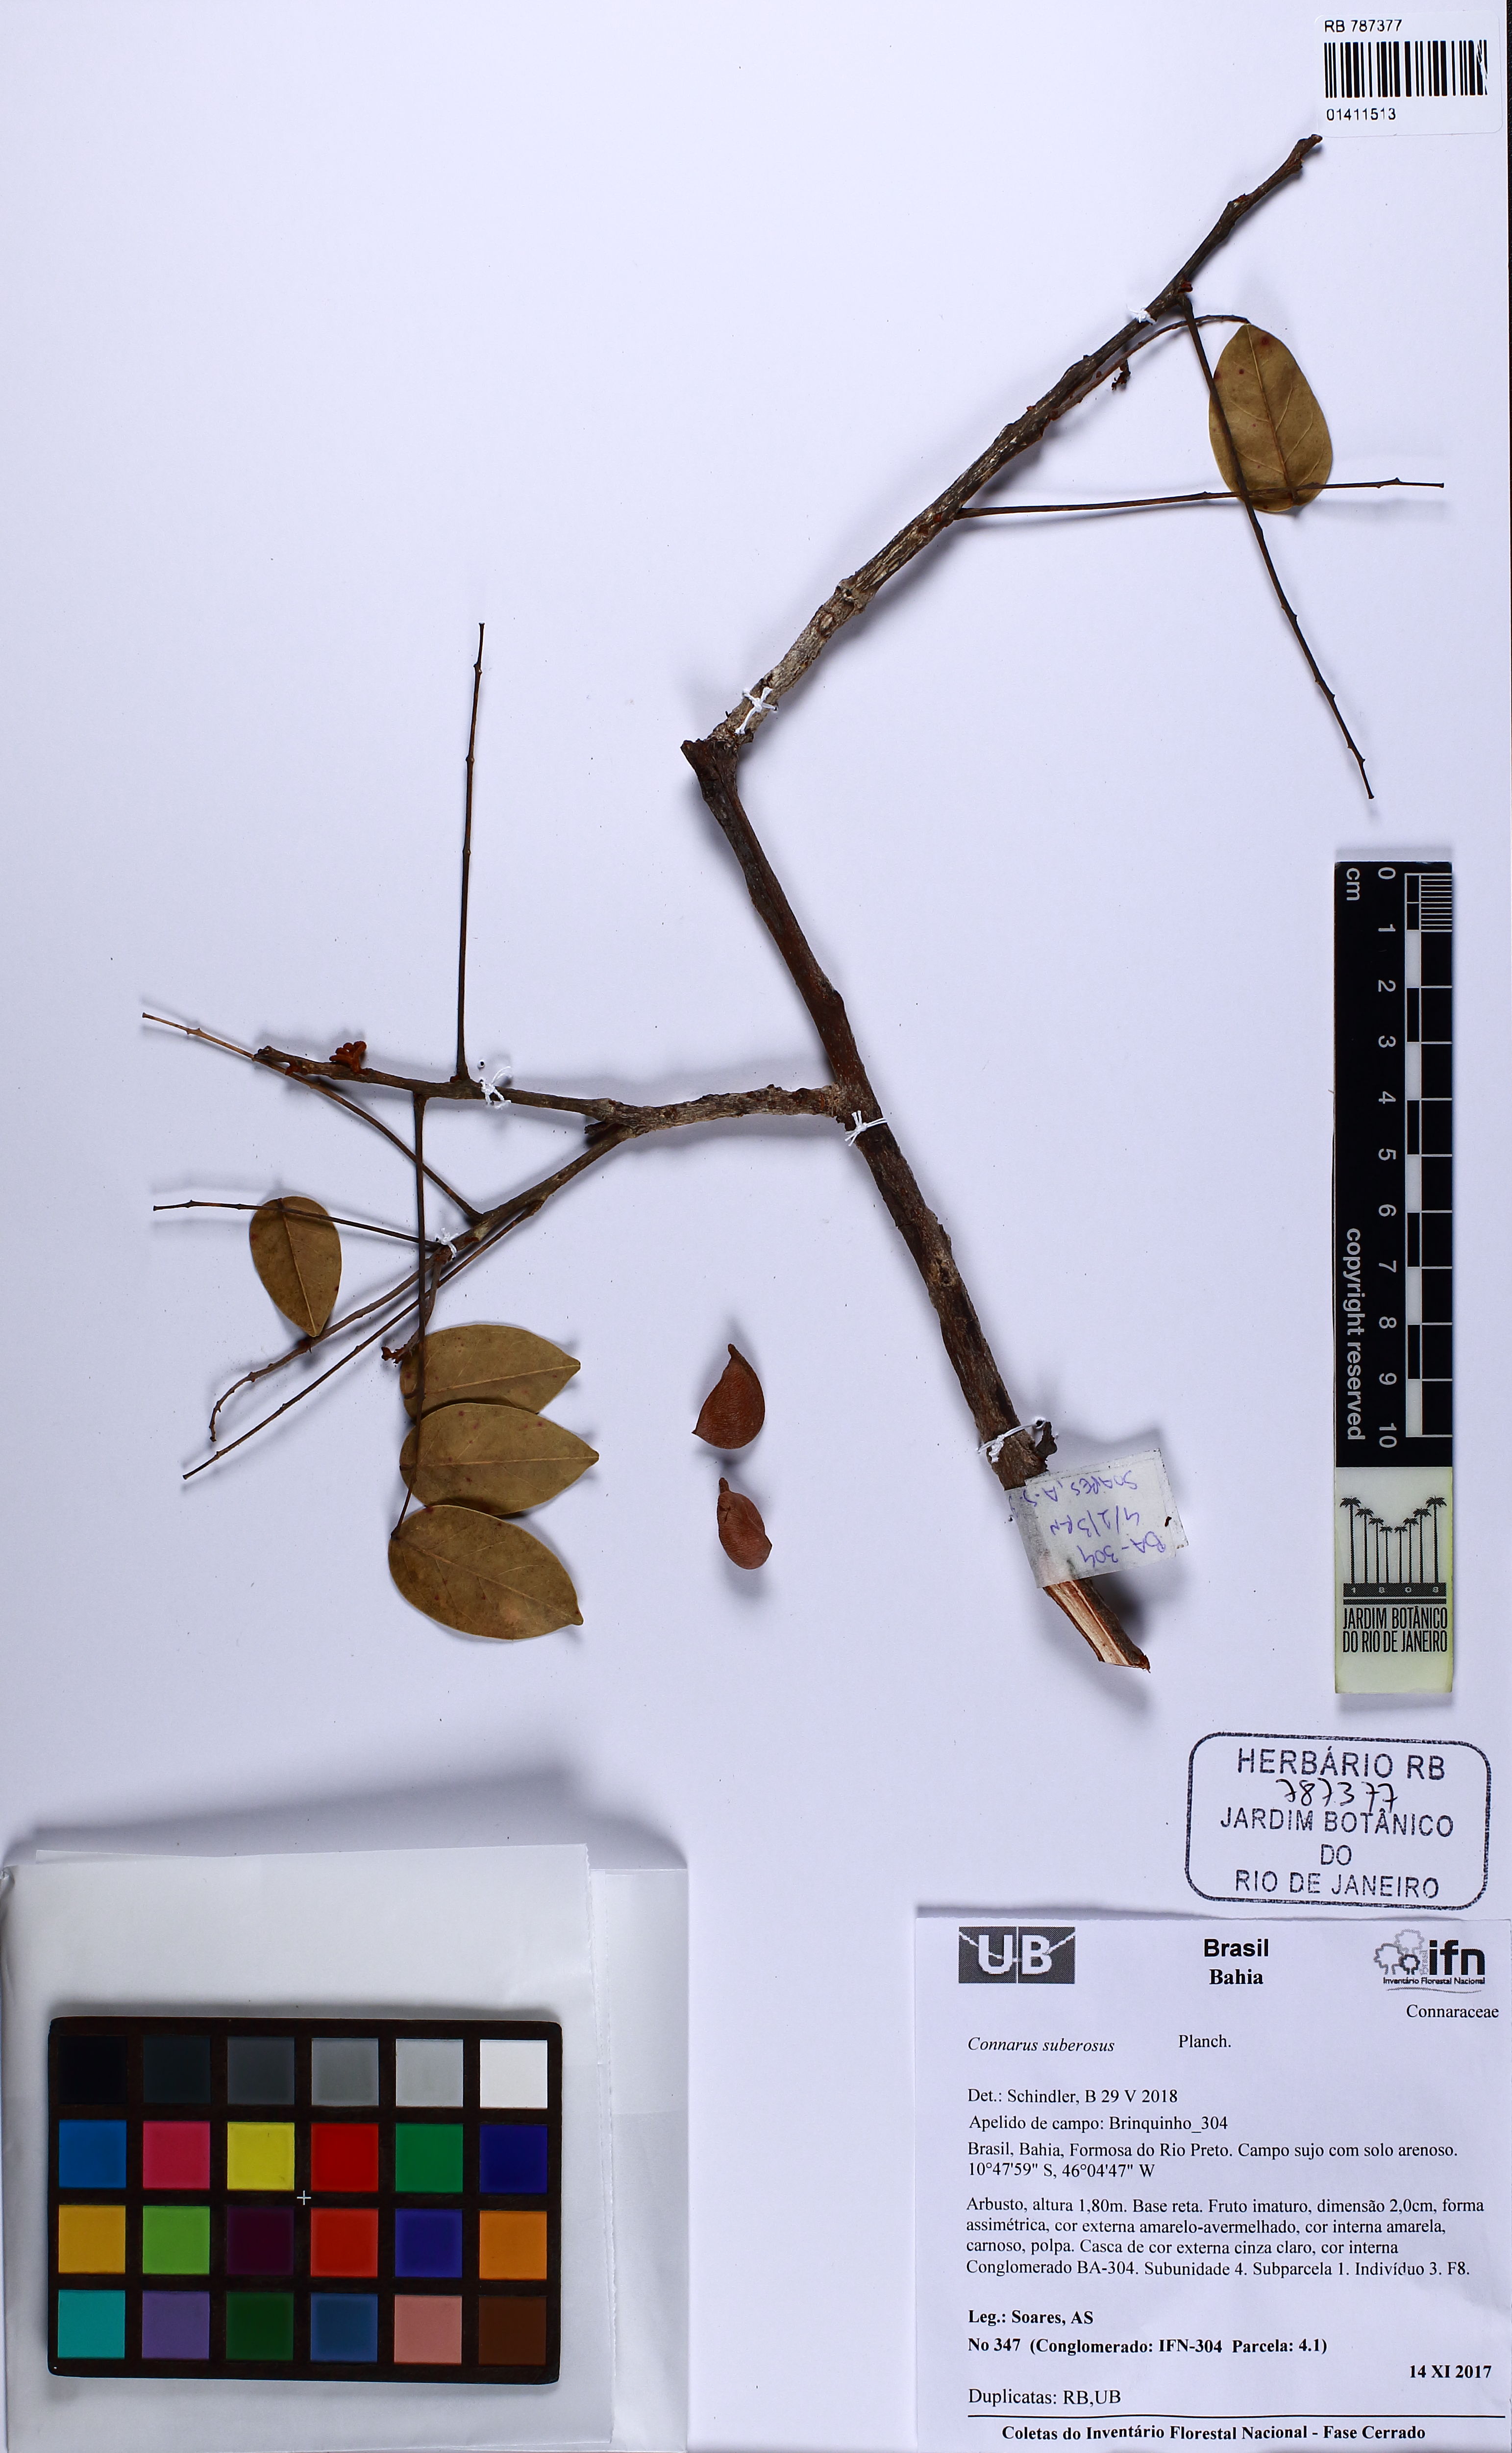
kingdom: Plantae
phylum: Tracheophyta
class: Magnoliopsida
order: Oxalidales
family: Connaraceae
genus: Connarus
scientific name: Connarus suberosus
